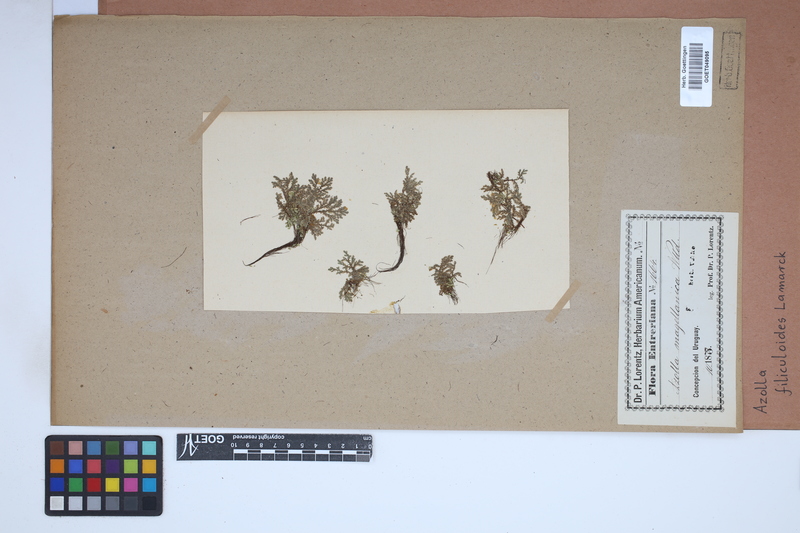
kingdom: Plantae
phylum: Tracheophyta
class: Polypodiopsida
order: Salviniales
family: Salviniaceae
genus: Azolla
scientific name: Azolla filiculoides
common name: Water fern
